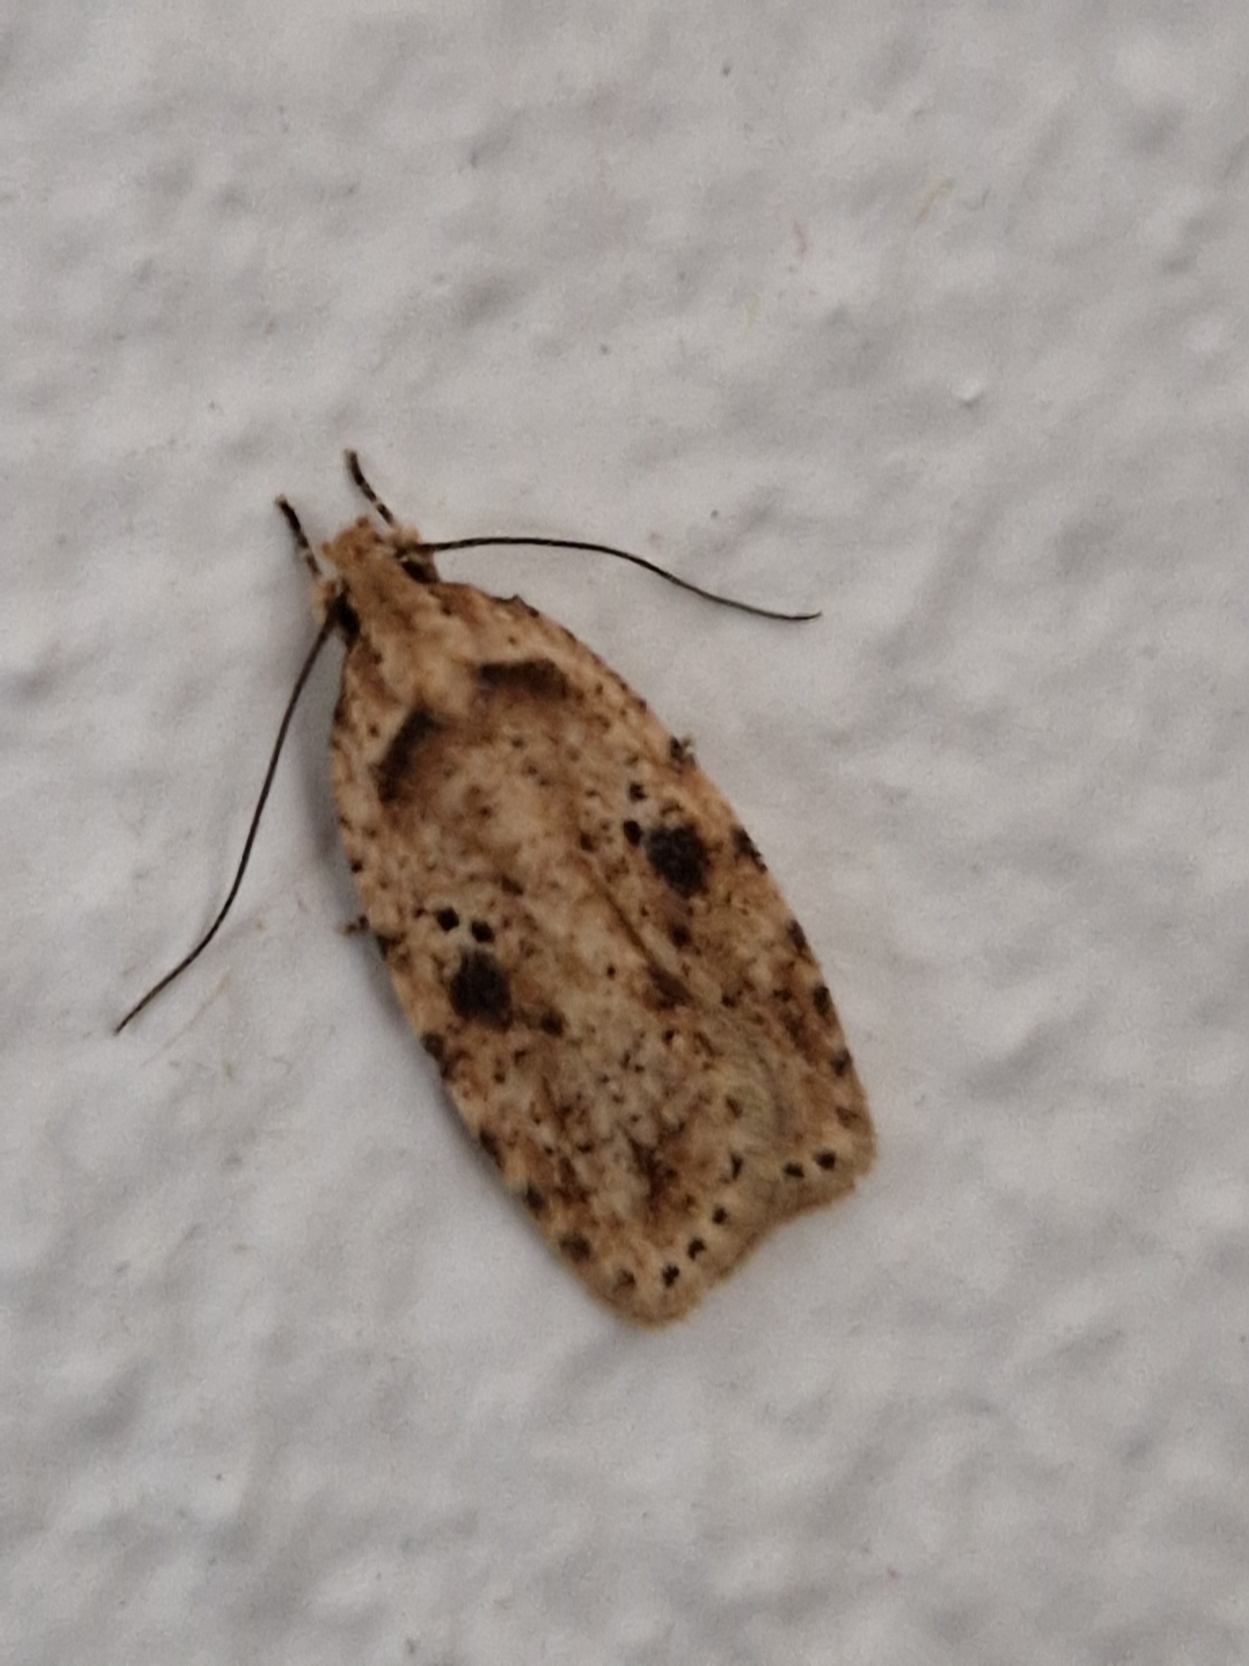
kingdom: Animalia
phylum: Arthropoda
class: Insecta
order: Lepidoptera
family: Depressariidae
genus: Agonopterix
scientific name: Agonopterix arenella
